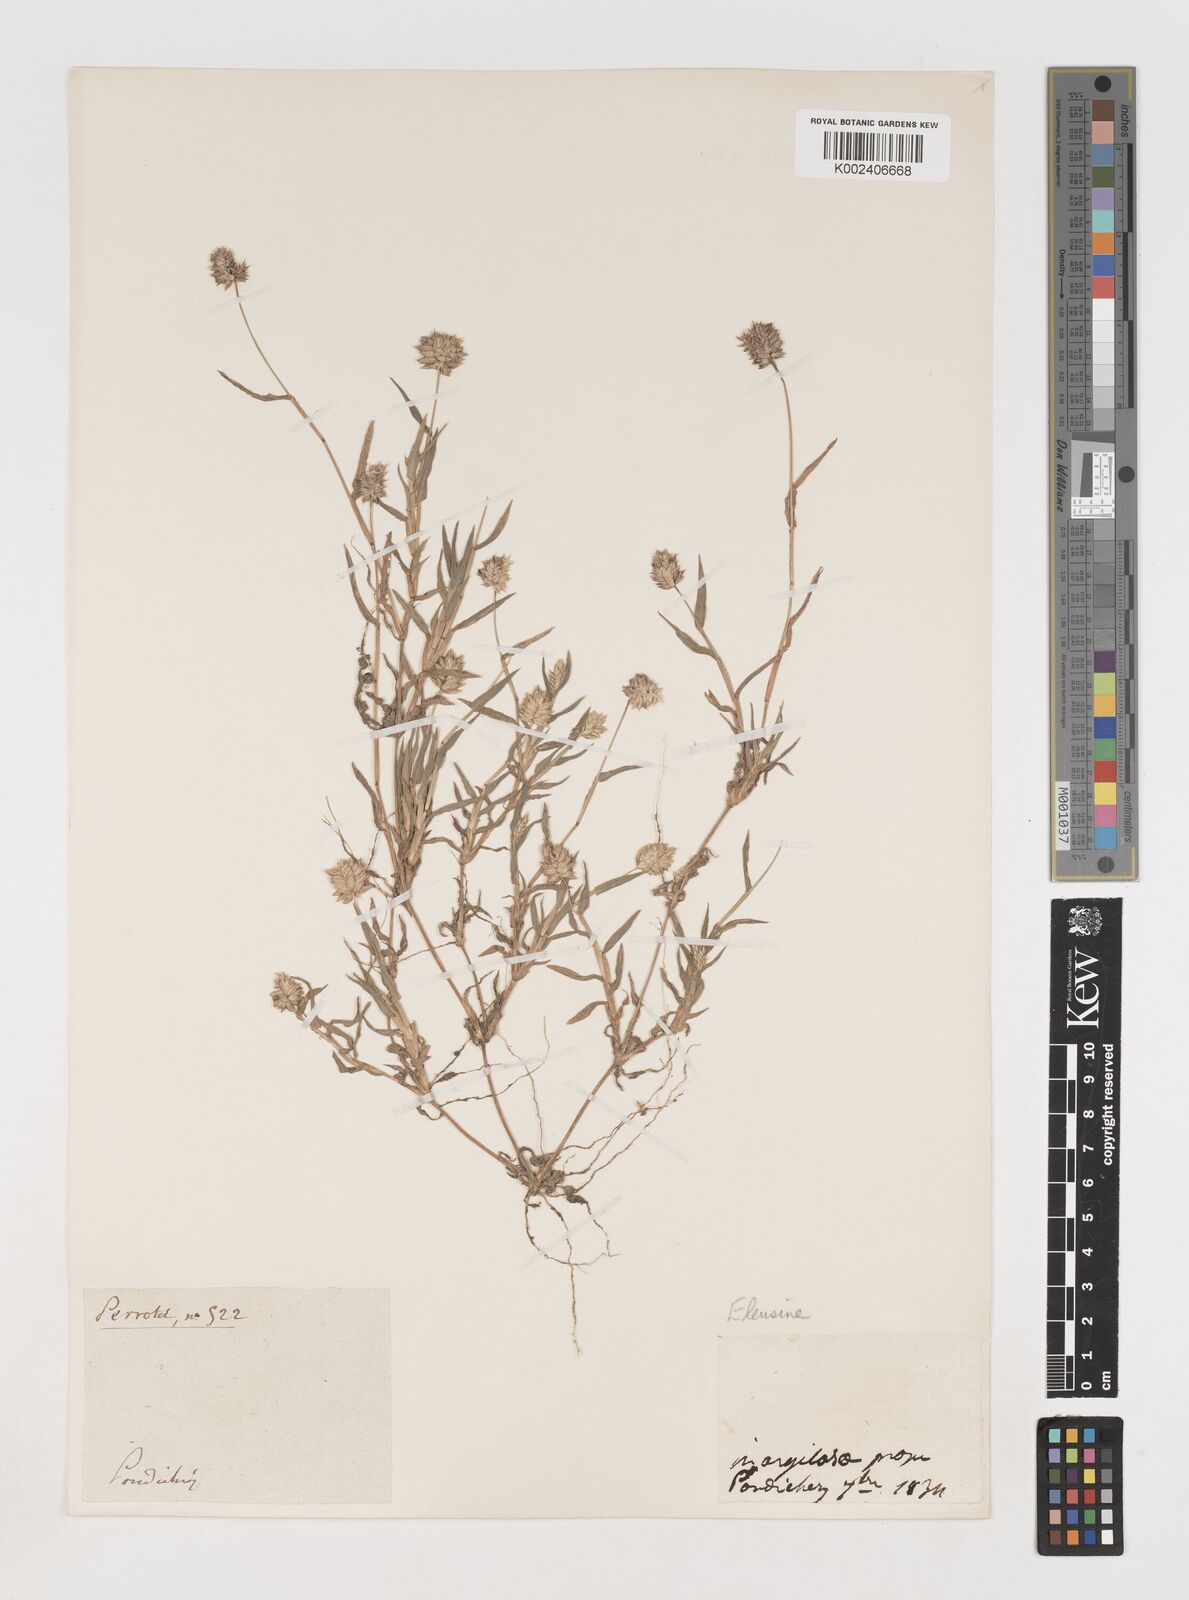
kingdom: Plantae
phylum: Tracheophyta
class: Liliopsida
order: Poales
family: Poaceae
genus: Coelachyrum
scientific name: Coelachyrum lagopoides
